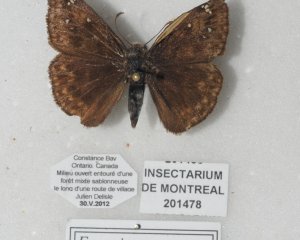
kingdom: Animalia
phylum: Arthropoda
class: Insecta
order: Lepidoptera
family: Hesperiidae
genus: Gesta
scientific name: Gesta
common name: Juvenal's Duskywing
